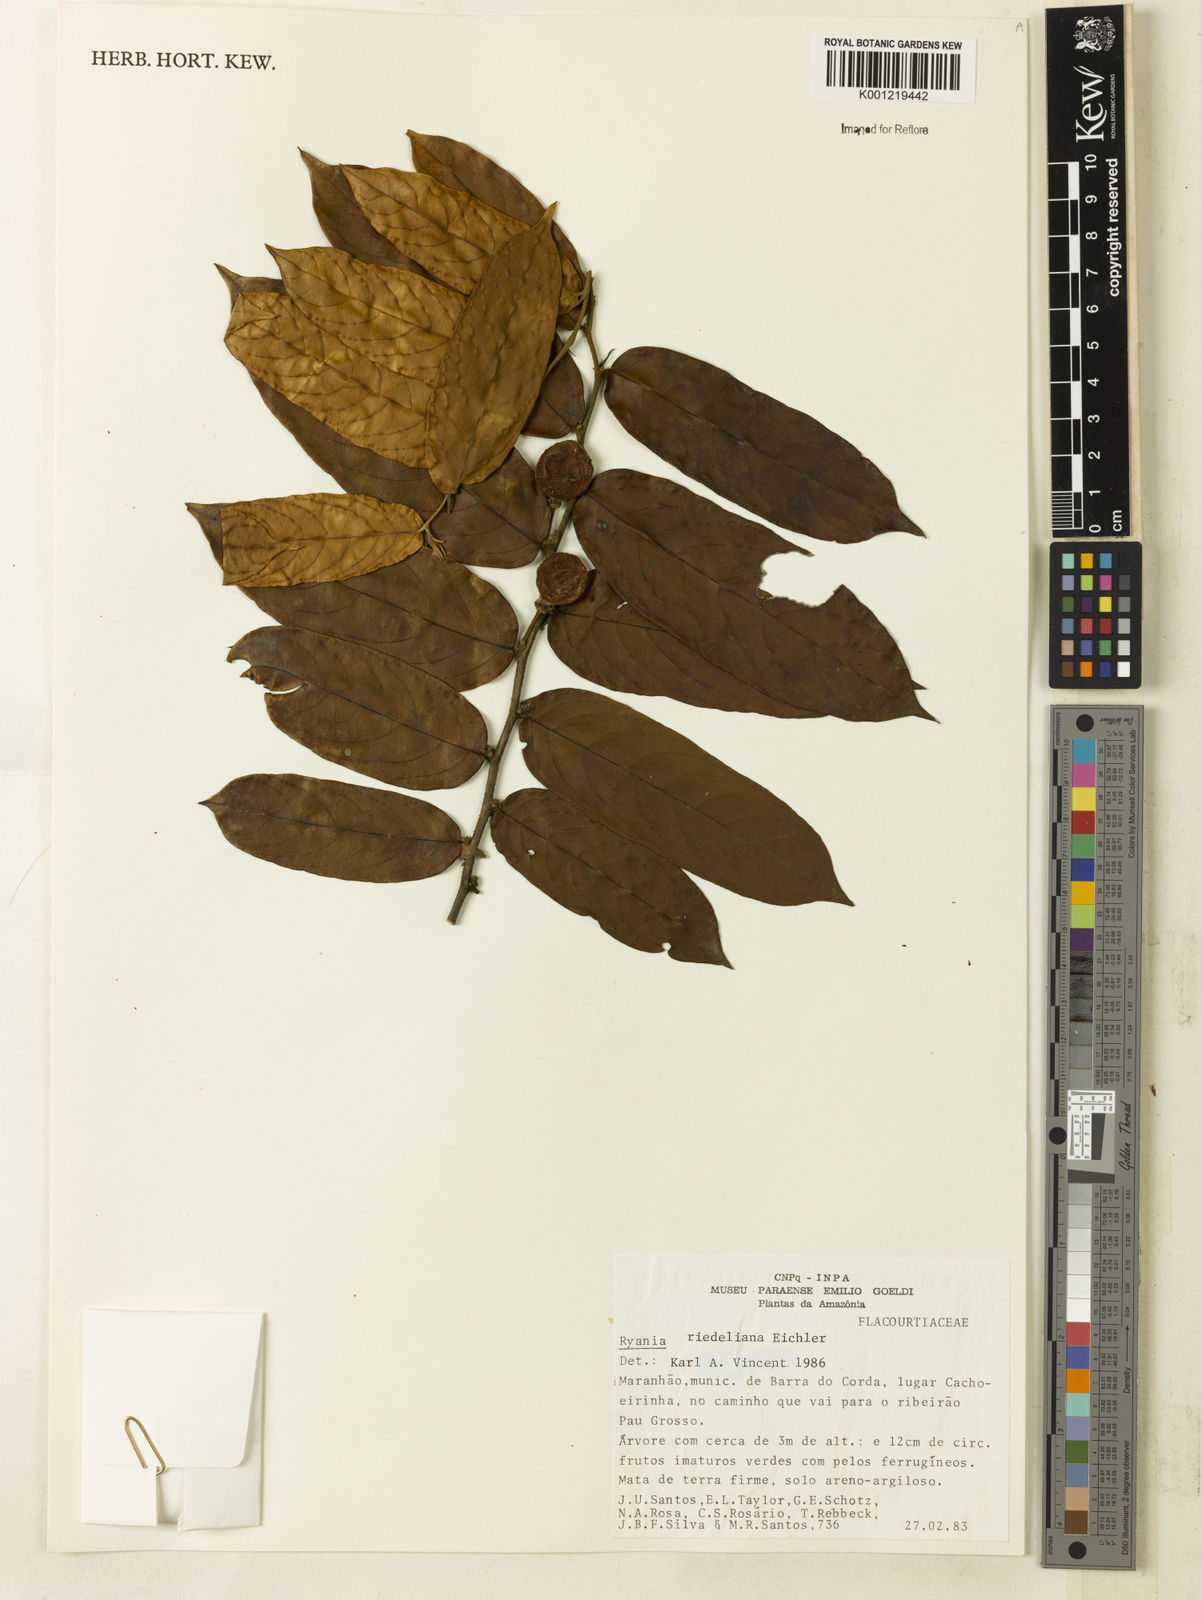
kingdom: Plantae
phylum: Tracheophyta
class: Magnoliopsida
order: Malpighiales
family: Salicaceae
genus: Ryania
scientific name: Ryania riedeliana
